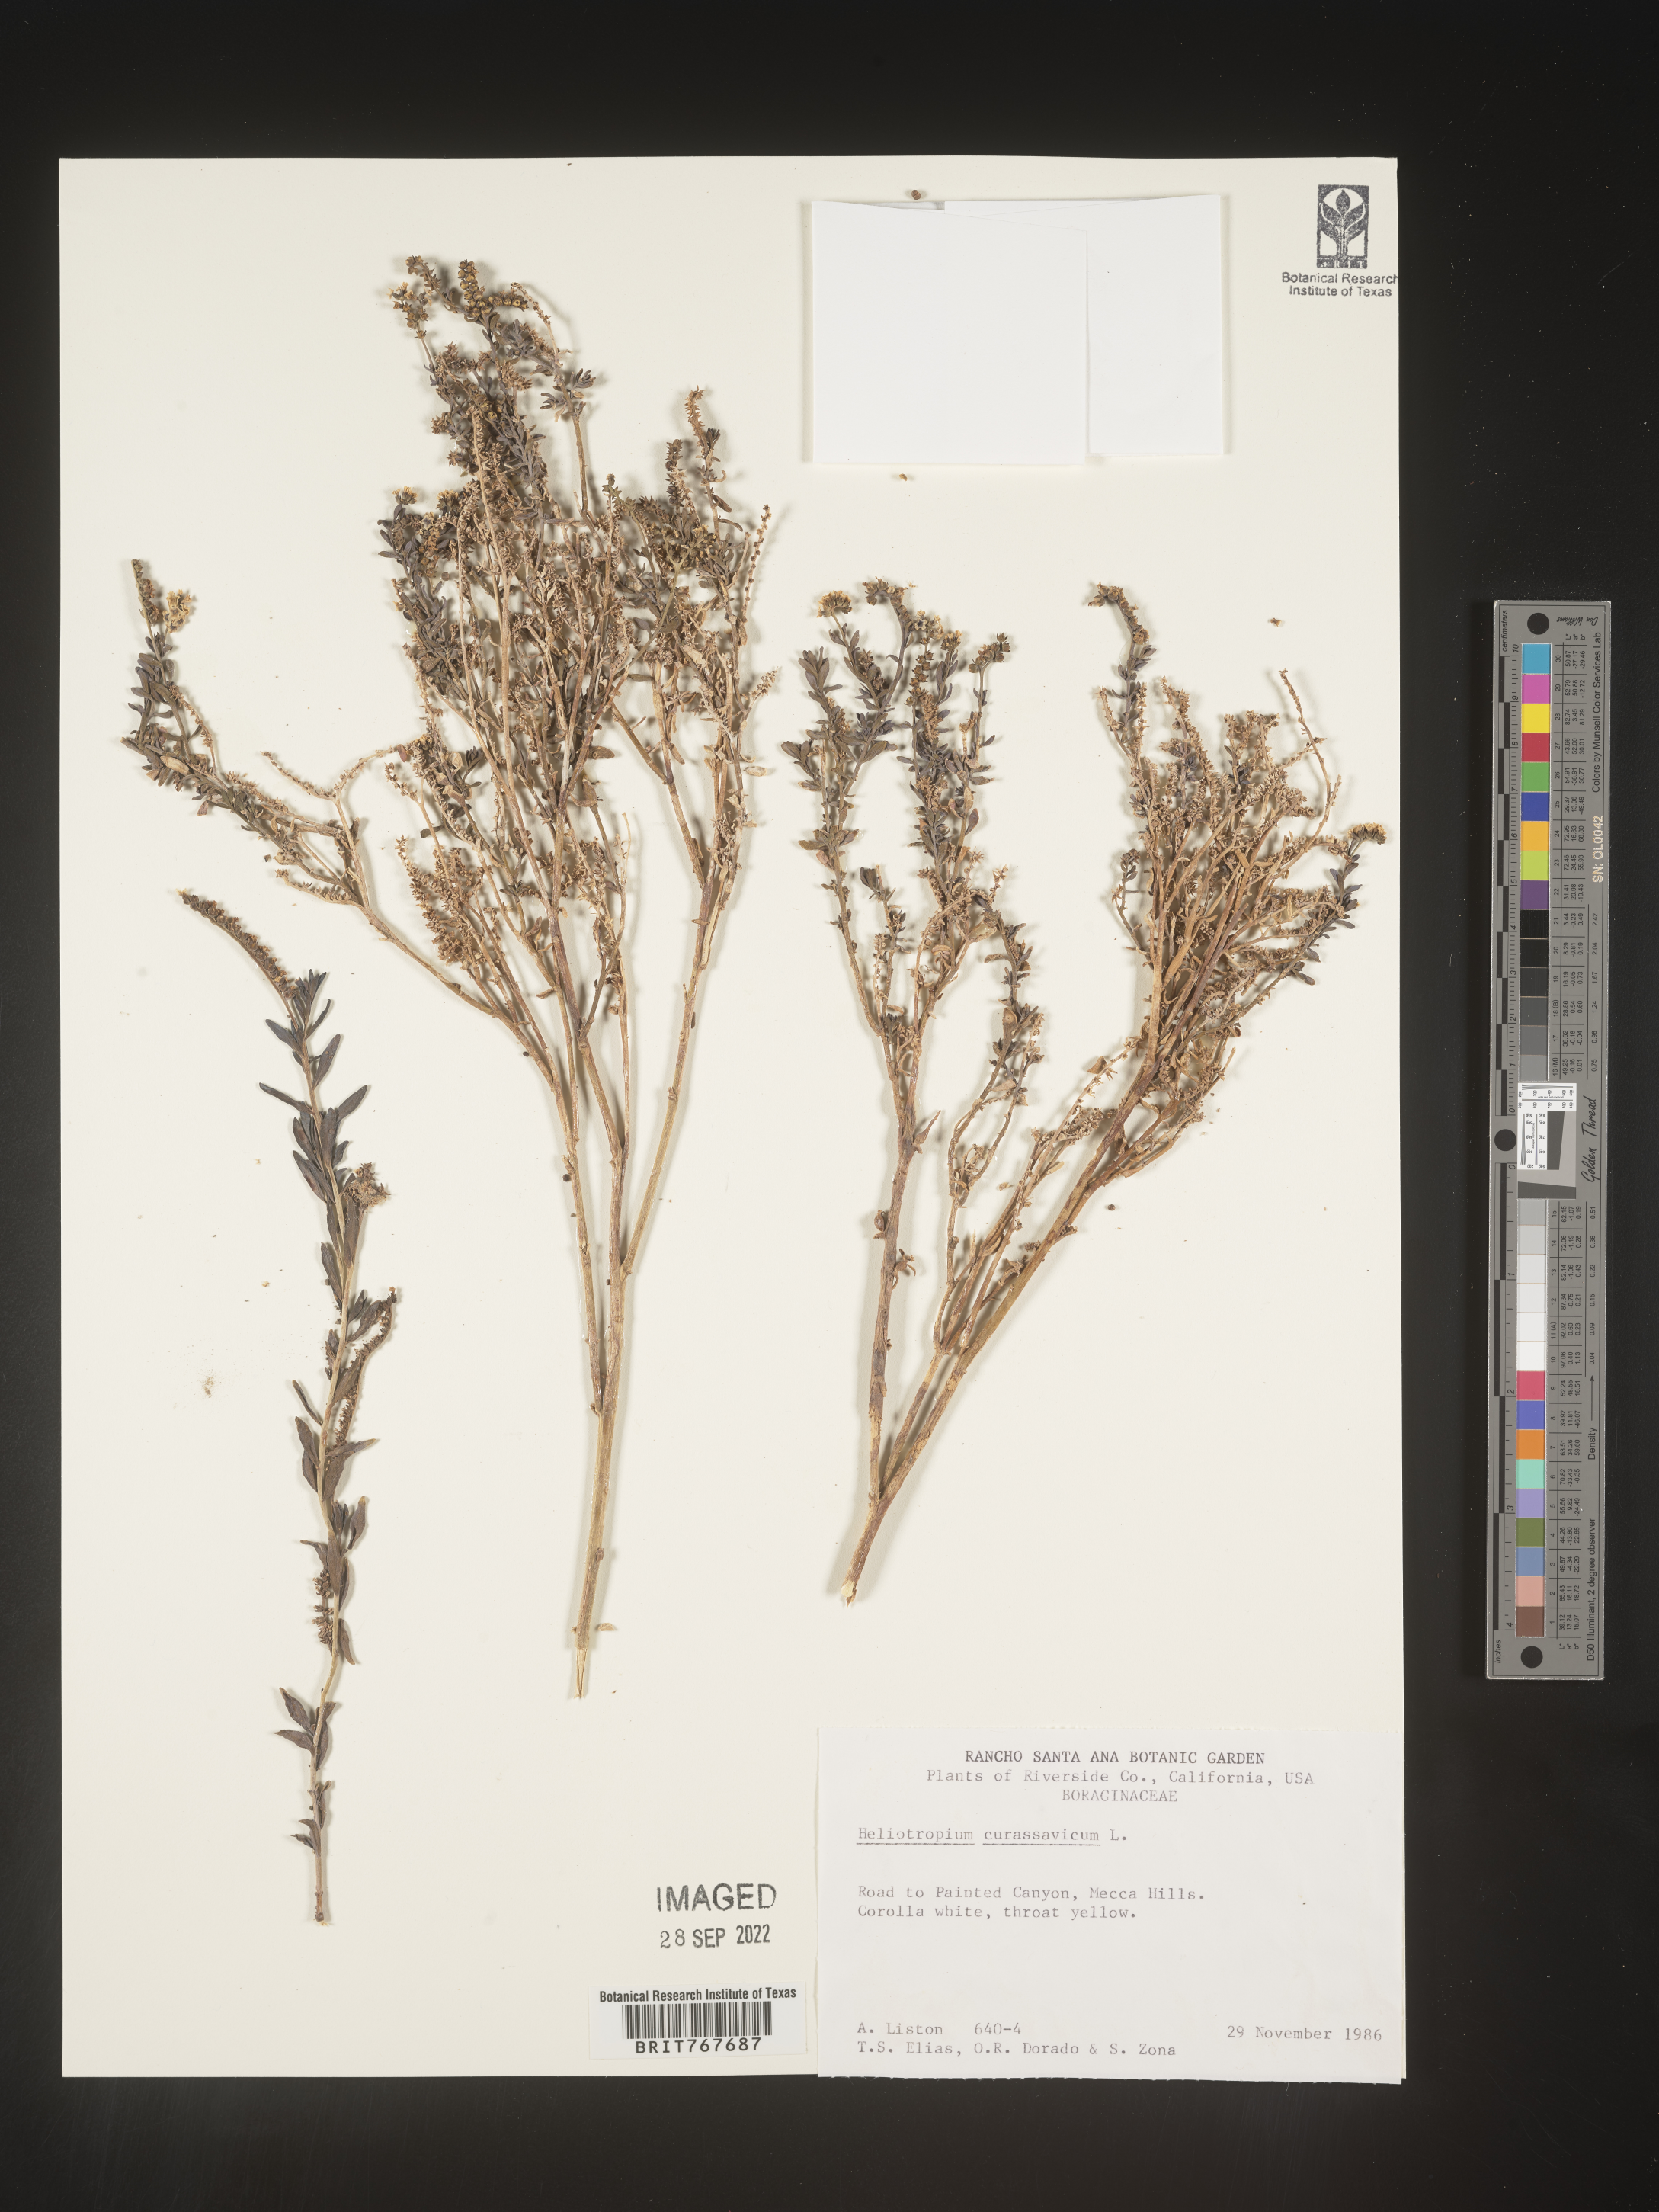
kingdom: Plantae
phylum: Tracheophyta
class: Magnoliopsida
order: Boraginales
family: Heliotropiaceae
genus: Heliotropium
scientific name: Heliotropium curassavicum
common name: Seaside heliotrope
